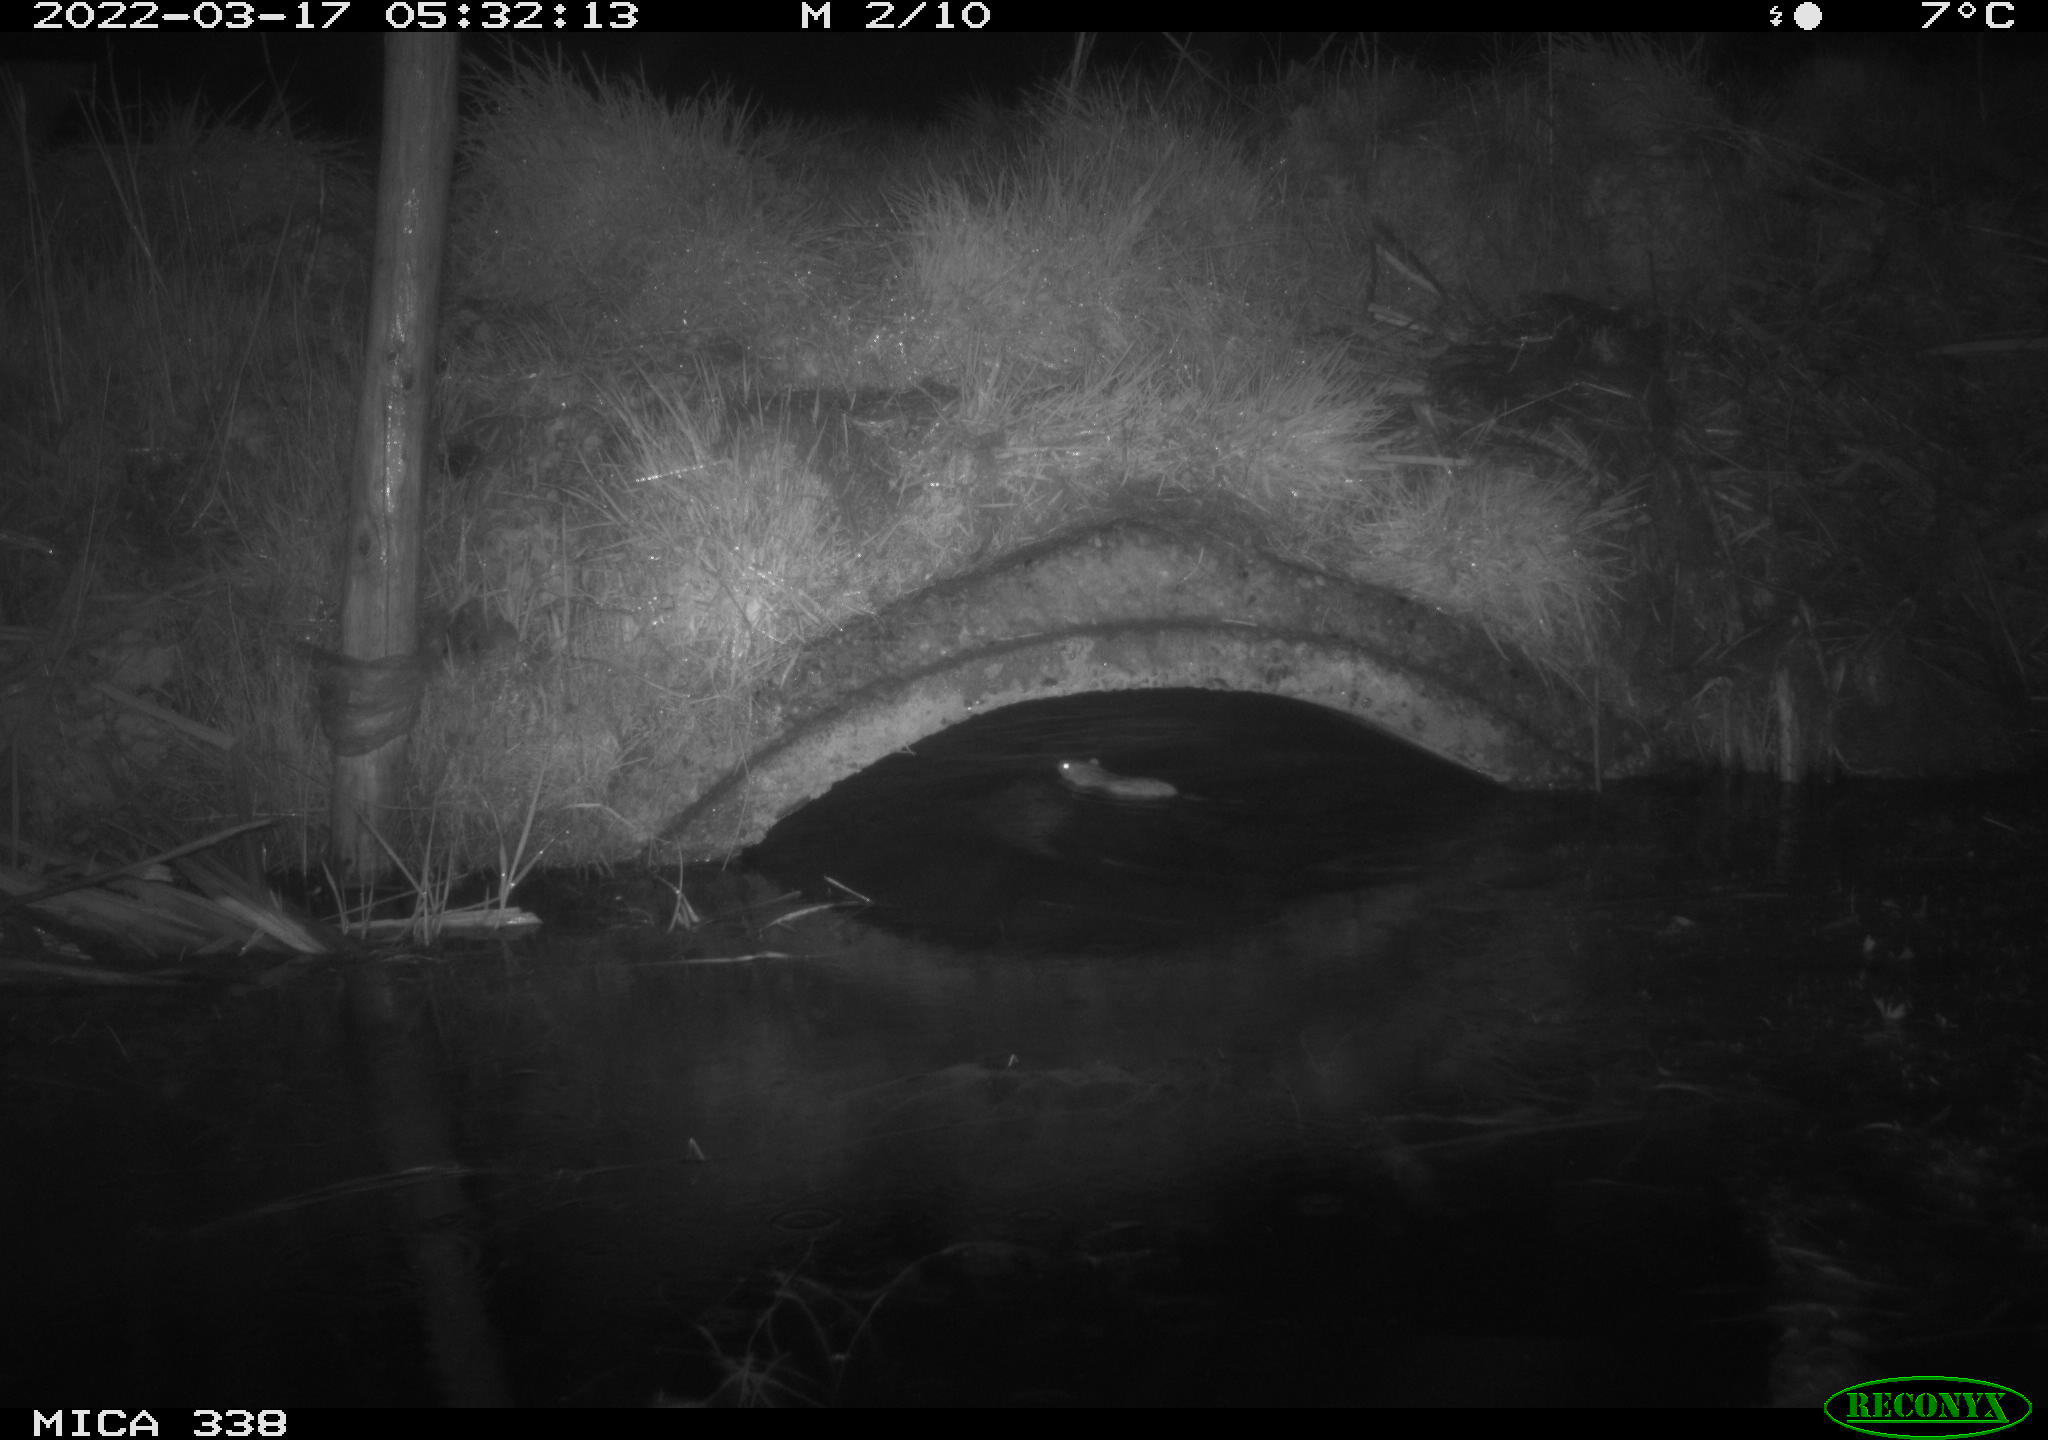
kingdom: Animalia
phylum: Chordata
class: Mammalia
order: Rodentia
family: Muridae
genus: Rattus
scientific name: Rattus norvegicus
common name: Brown rat
